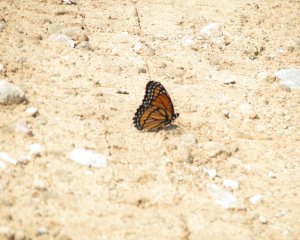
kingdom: Animalia
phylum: Arthropoda
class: Insecta
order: Lepidoptera
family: Nymphalidae
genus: Limenitis
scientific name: Limenitis archippus
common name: Viceroy
